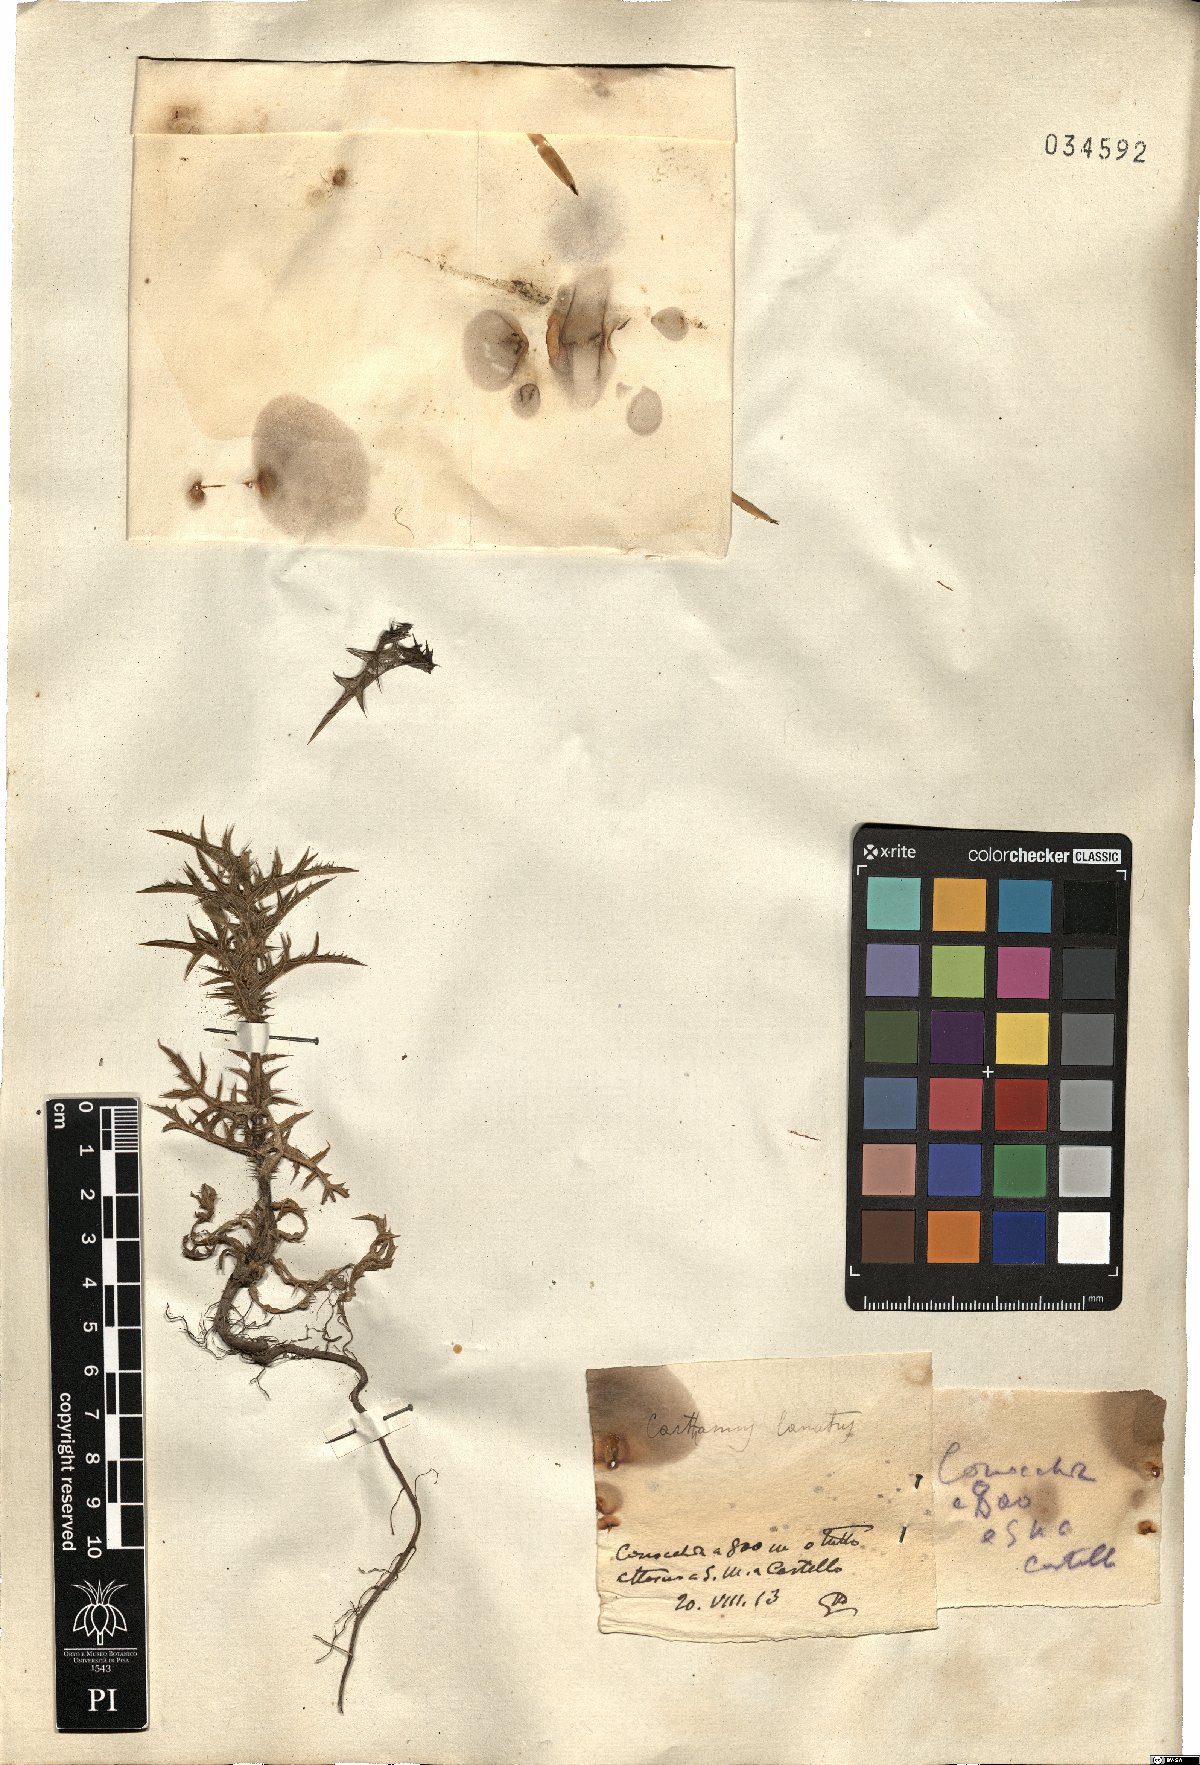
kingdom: Plantae
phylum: Tracheophyta
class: Magnoliopsida
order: Asterales
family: Asteraceae
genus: Carthamus
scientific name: Carthamus lanatus
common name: Downy safflower
